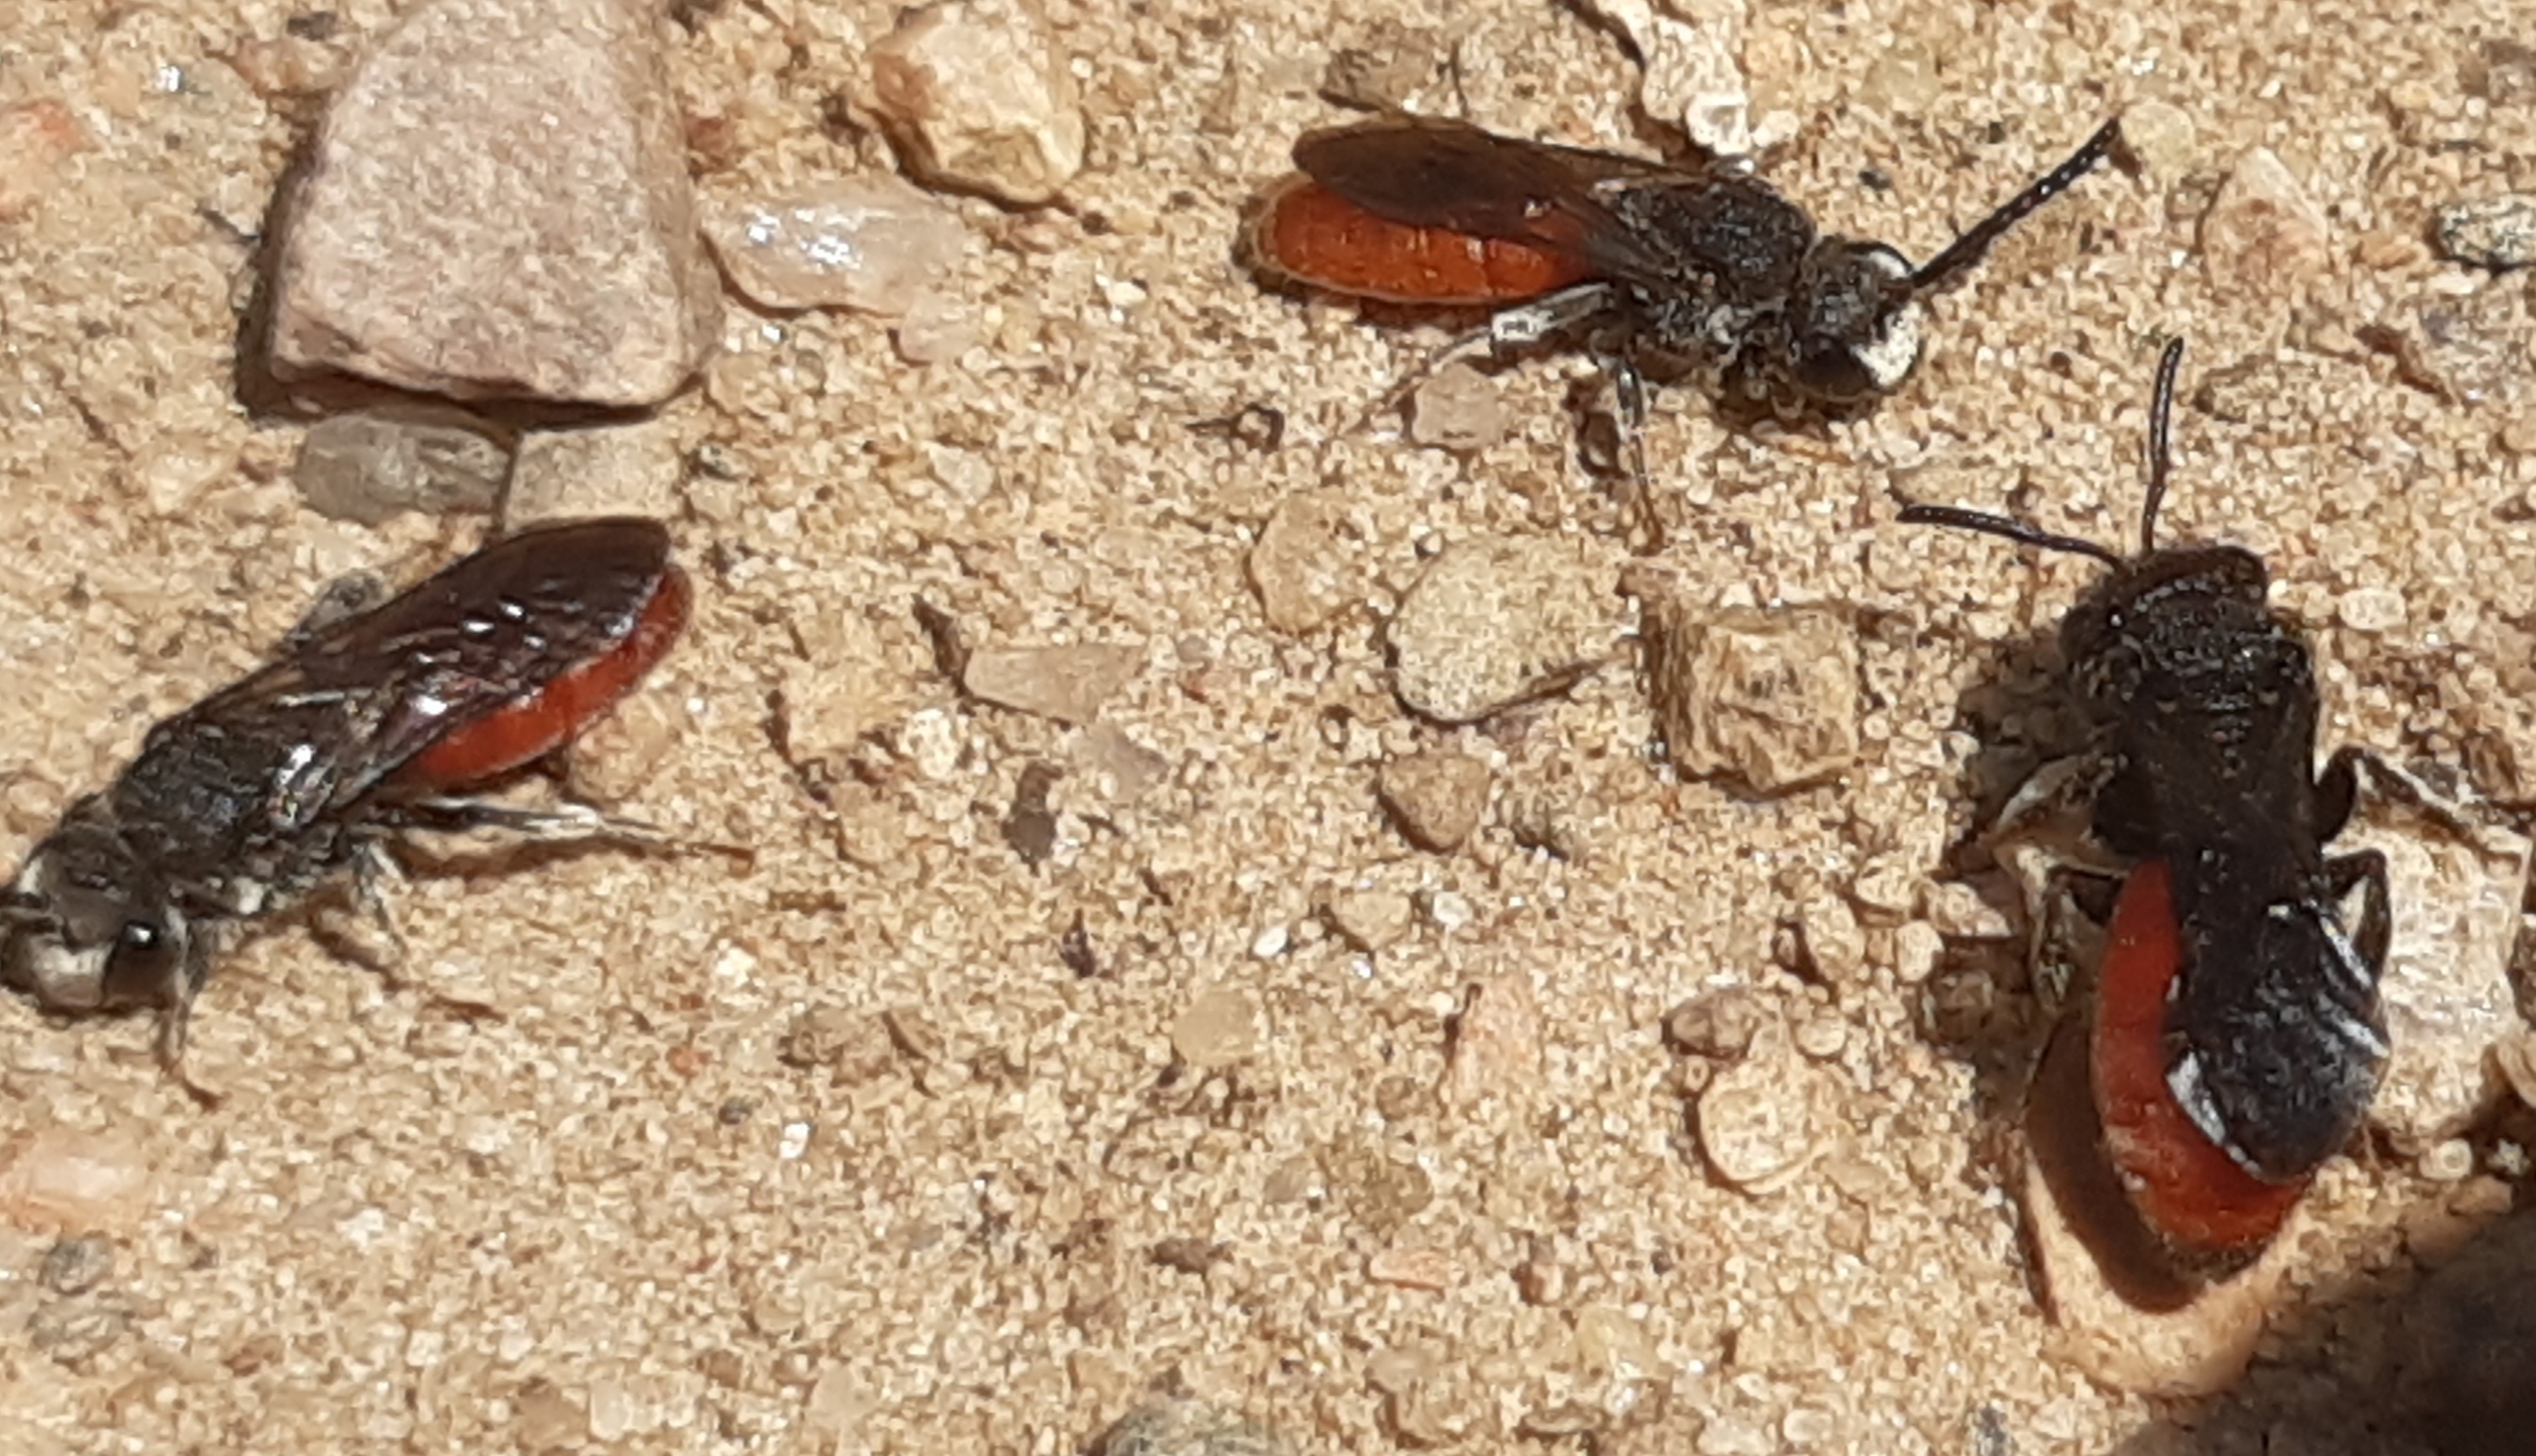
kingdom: Animalia
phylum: Arthropoda
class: Insecta
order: Hymenoptera
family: Halictidae
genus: Sphecodes
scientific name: Sphecodes albilabris
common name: Stor blodbi
